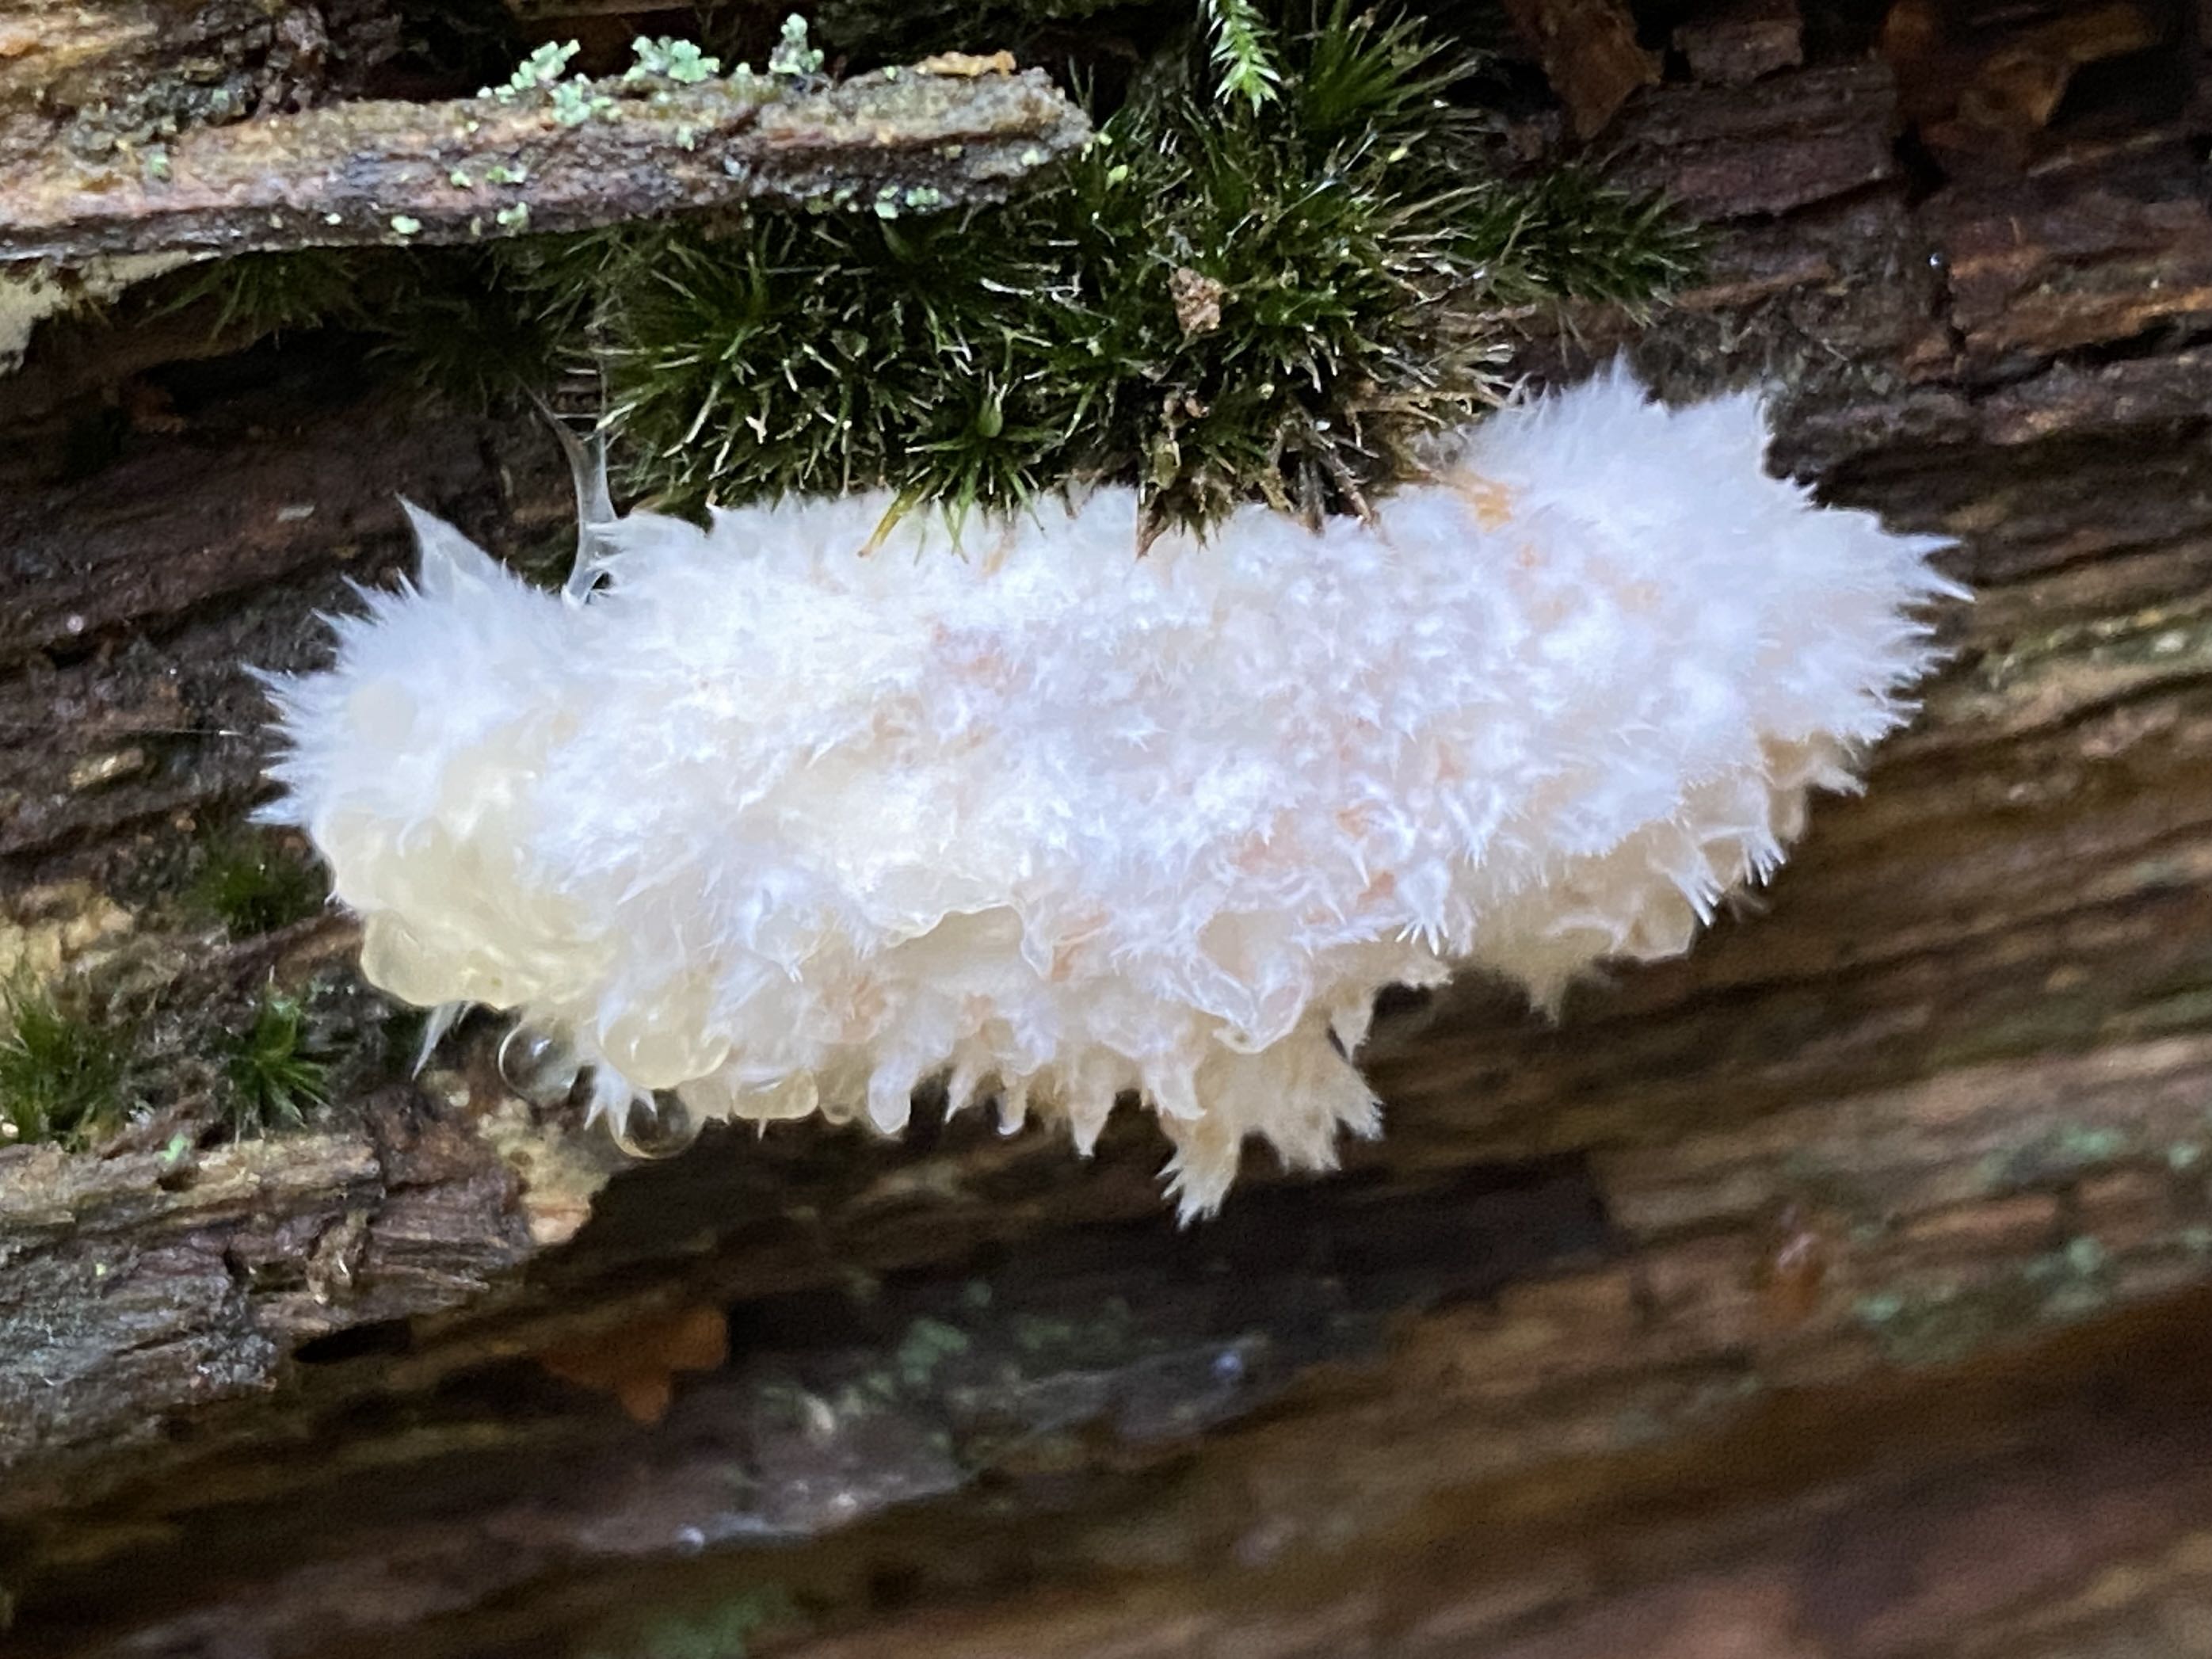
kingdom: Fungi
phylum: Basidiomycota
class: Agaricomycetes
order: Polyporales
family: Dacryobolaceae
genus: Postia
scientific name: Postia ptychogaster
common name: støvende kødporesvamp
